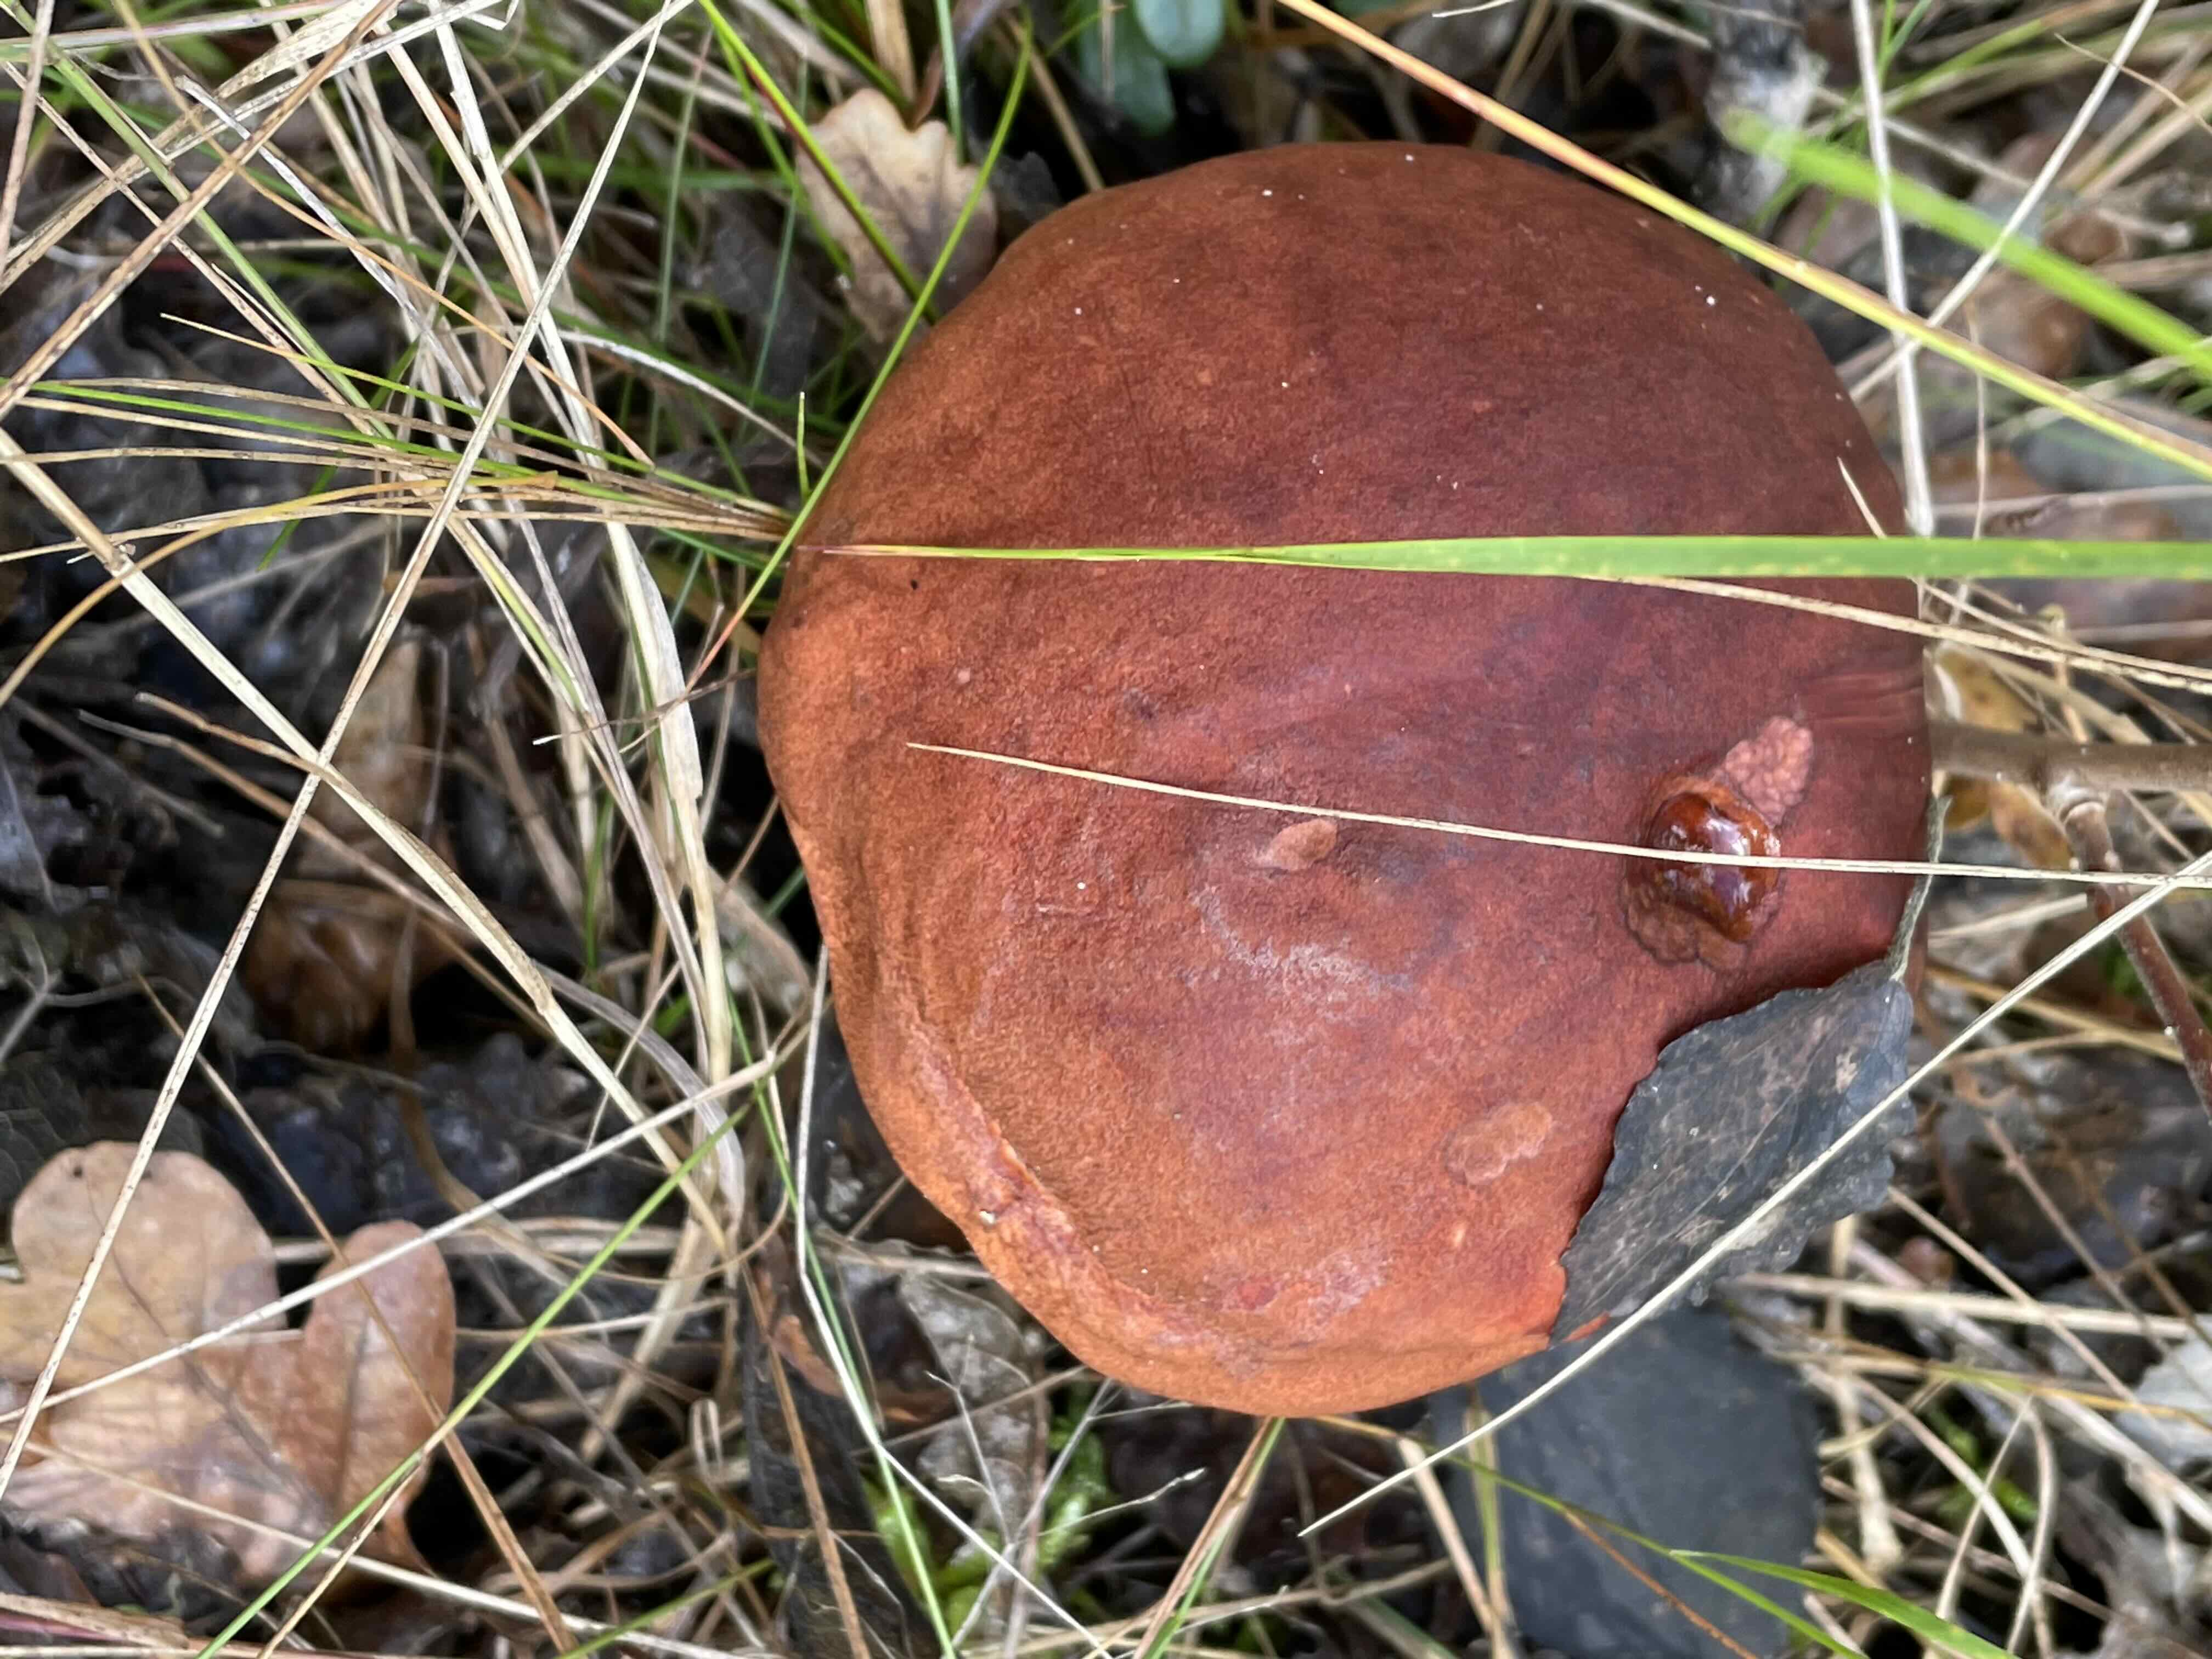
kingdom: Fungi
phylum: Basidiomycota
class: Agaricomycetes
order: Boletales
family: Boletaceae
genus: Leccinum
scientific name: Leccinum aurantiacum
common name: rustrød skælrørhat
